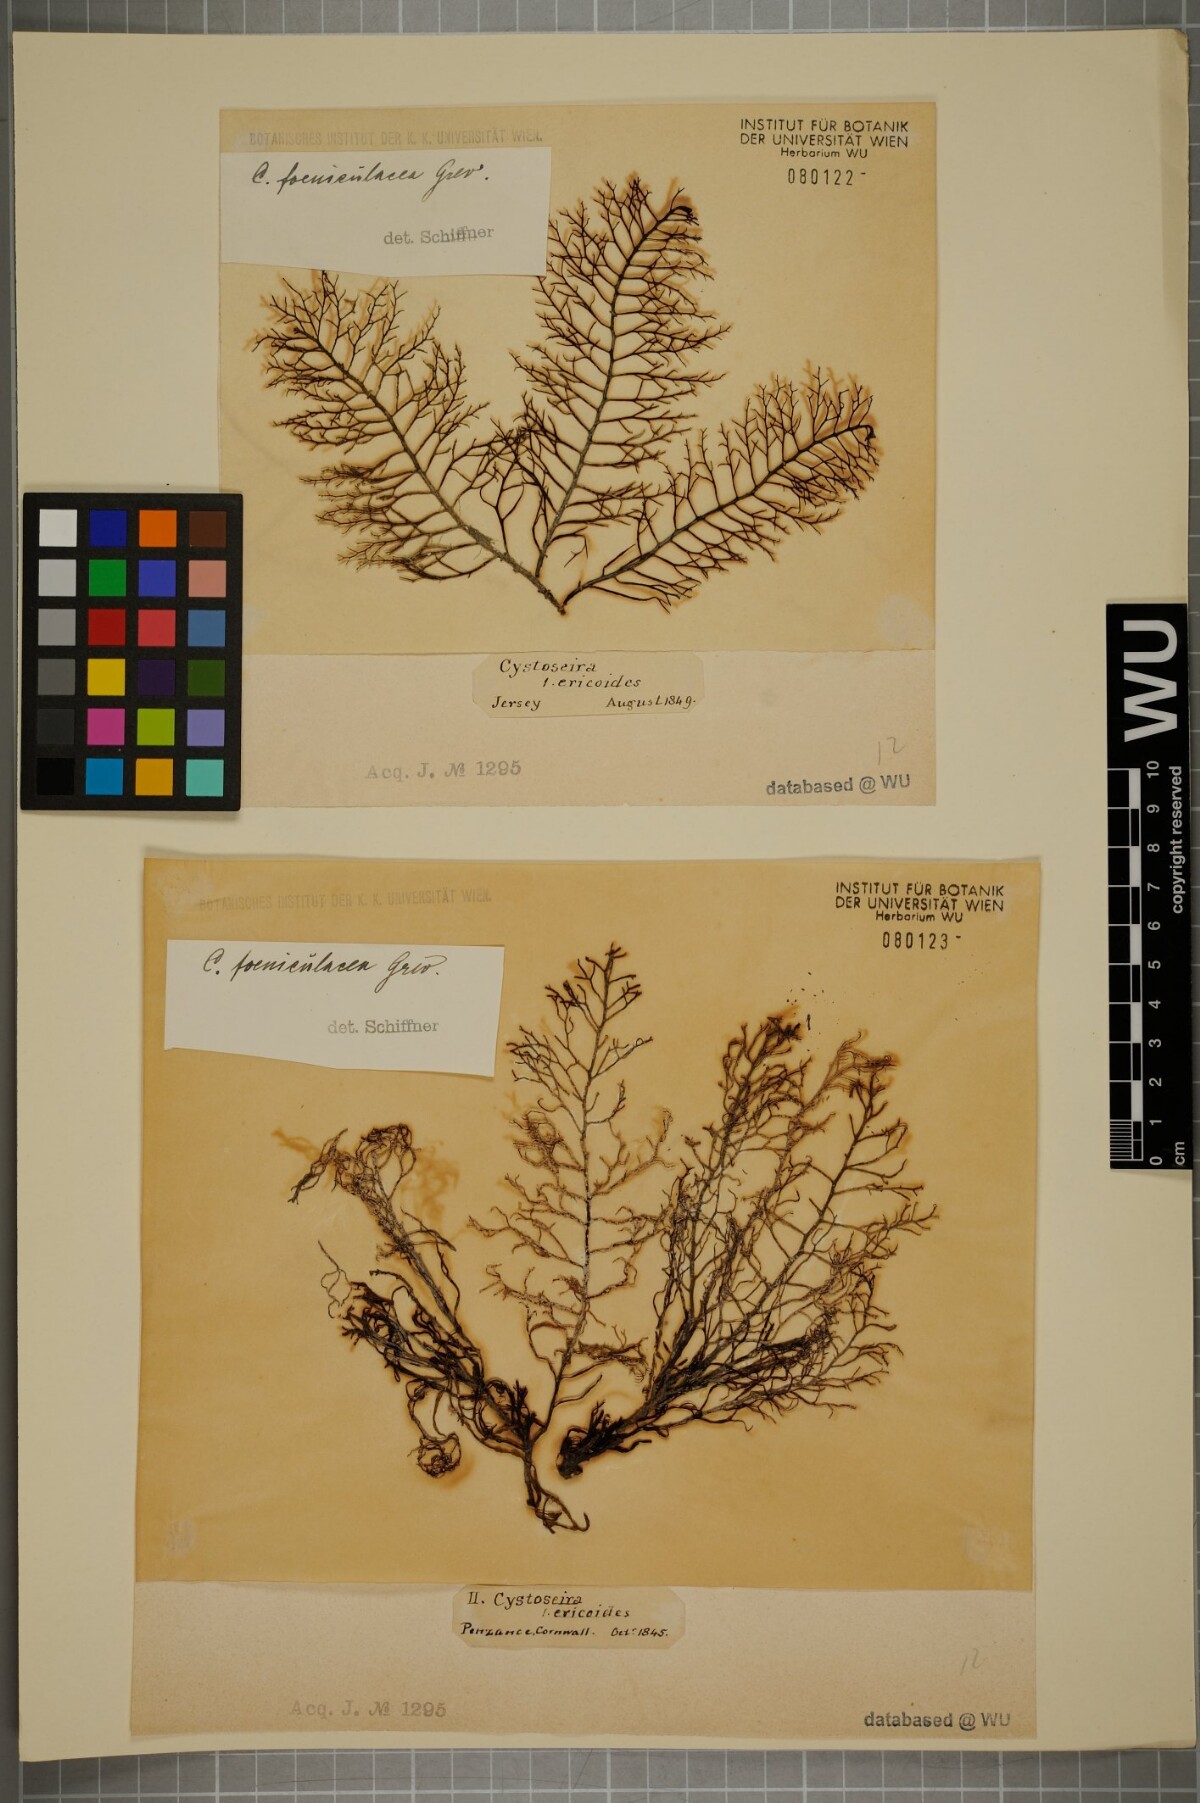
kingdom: Chromista
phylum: Ochrophyta
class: Phaeophyceae
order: Fucales
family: Sargassaceae
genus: Cystoseira
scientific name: Cystoseira Ericaria selaginoides
